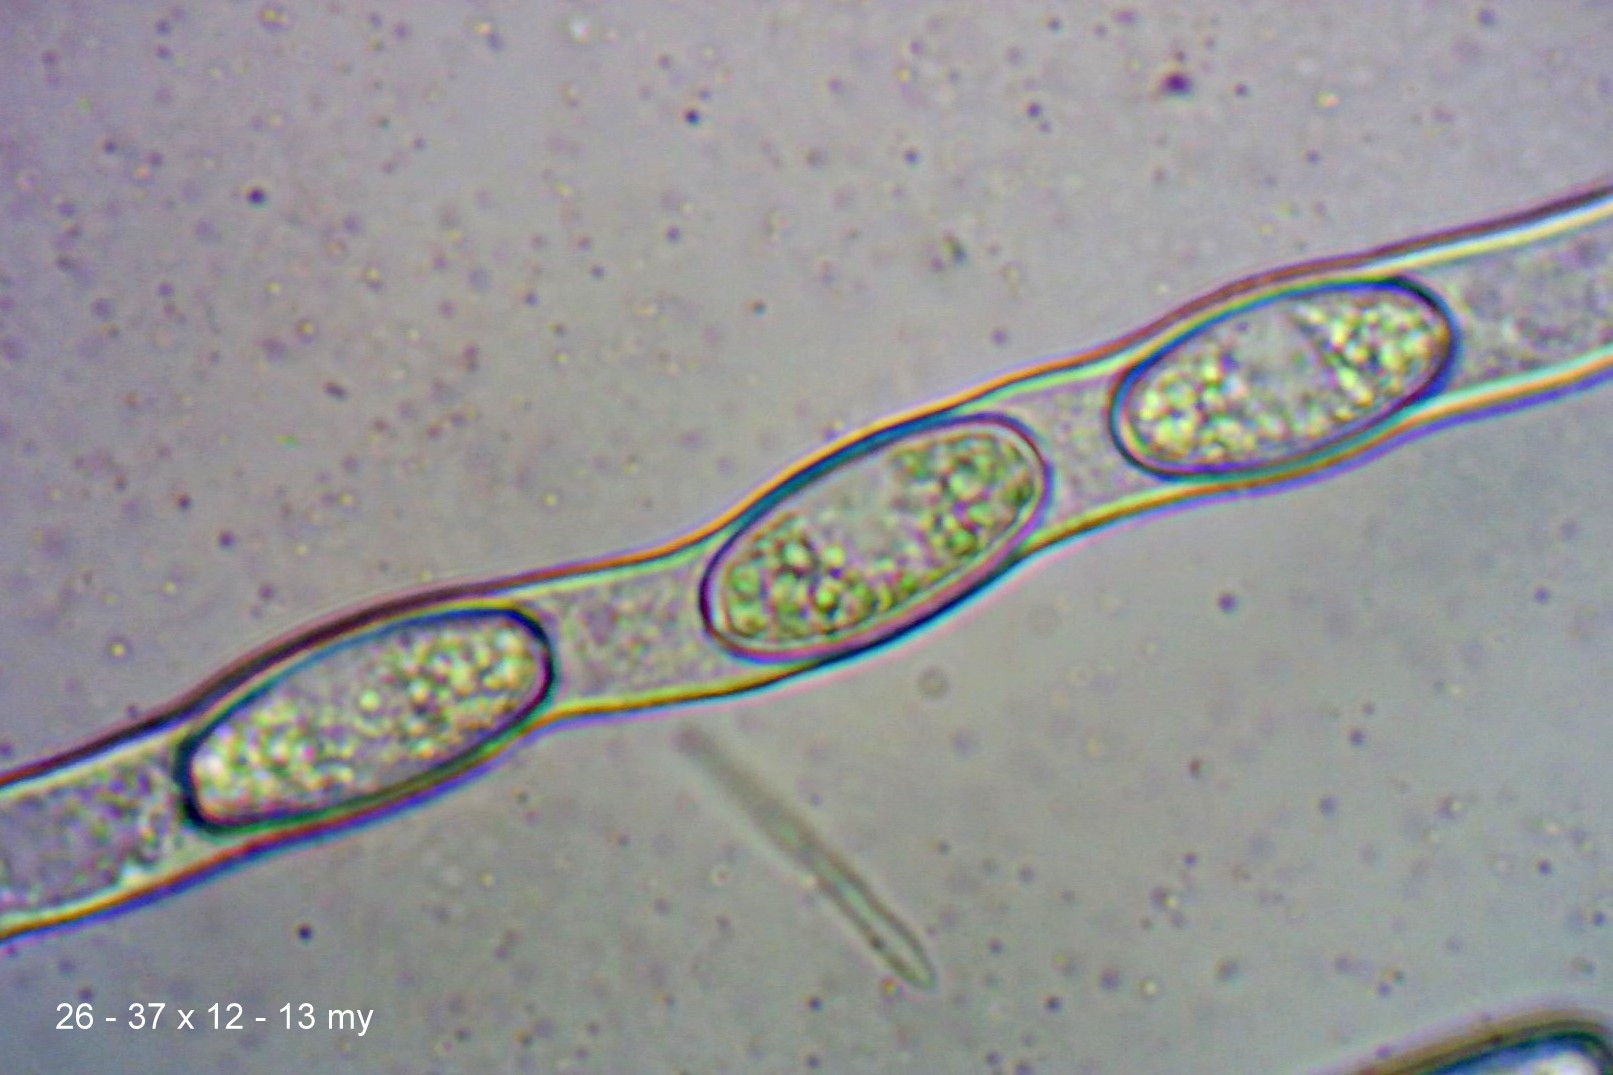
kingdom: Fungi
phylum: Ascomycota
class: Pezizomycetes
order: Pezizales
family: Sarcoscyphaceae
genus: Sarcoscypha
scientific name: Sarcoscypha austriaca
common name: krølhåret pragtbæger
